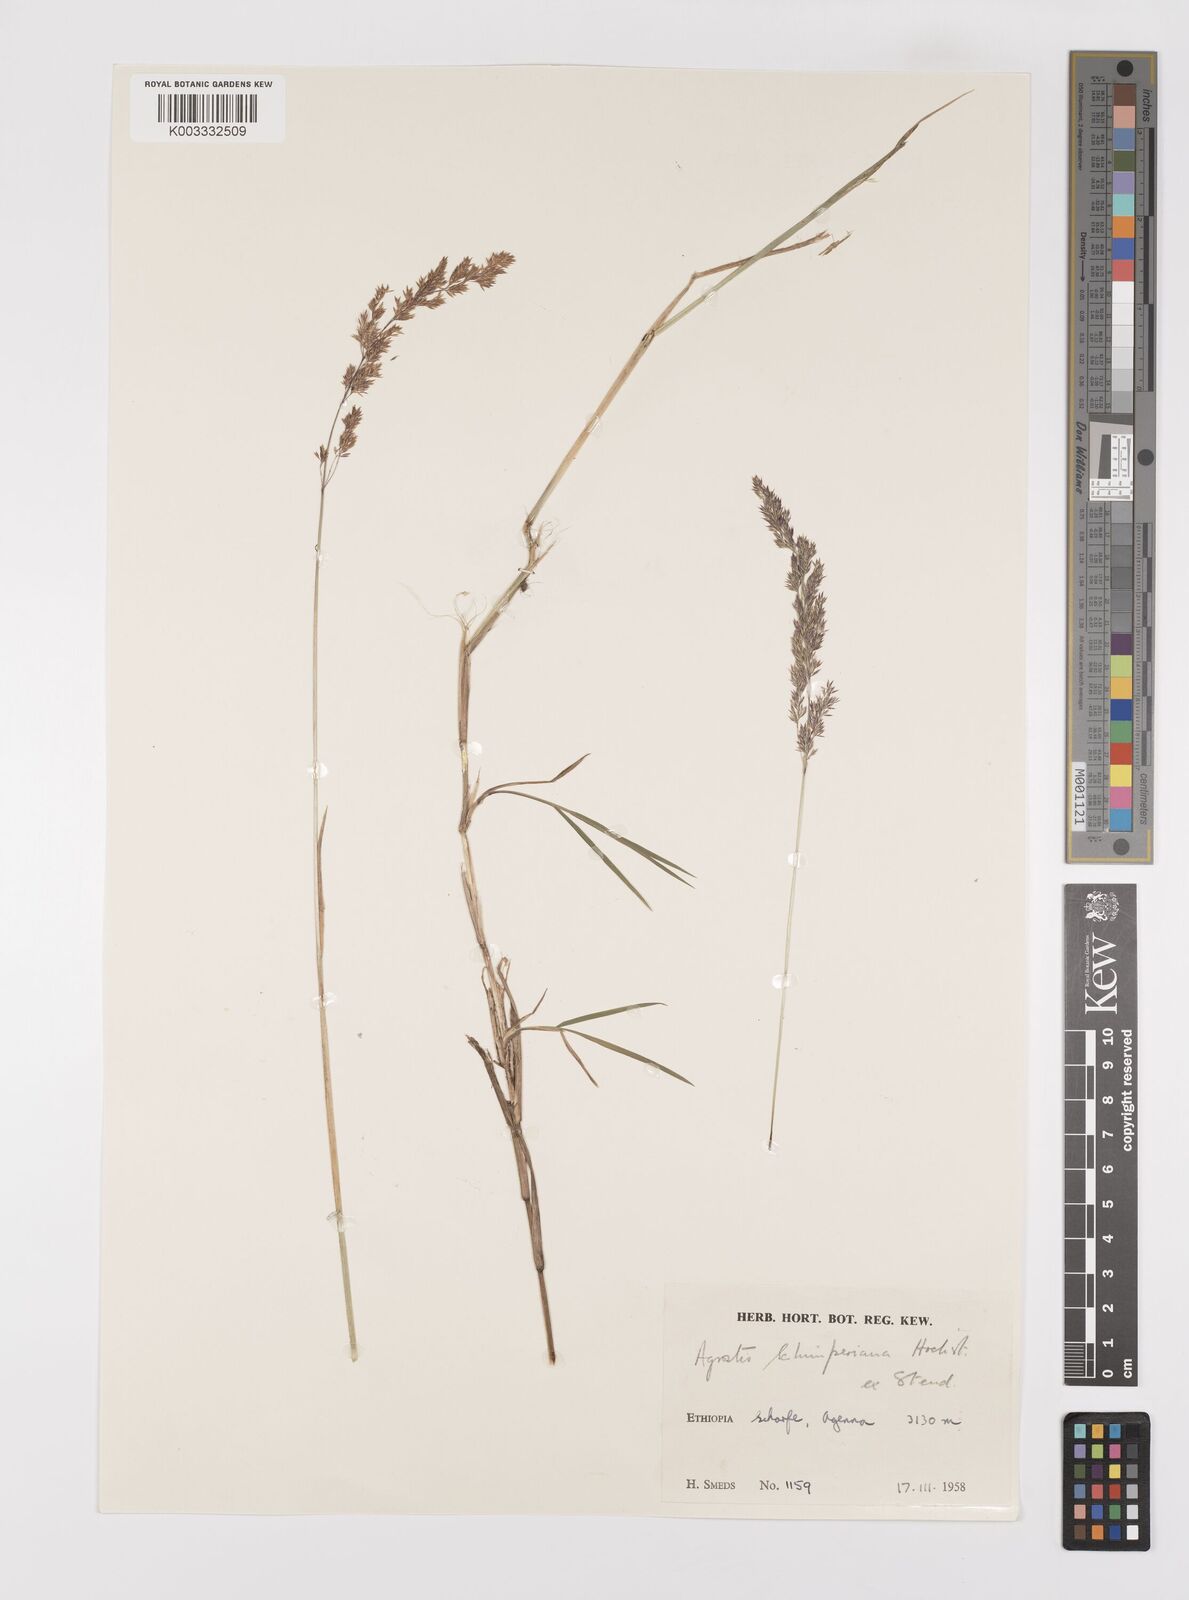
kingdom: Plantae
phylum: Tracheophyta
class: Liliopsida
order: Poales
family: Poaceae
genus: Polypogon
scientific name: Polypogon schimperianus
